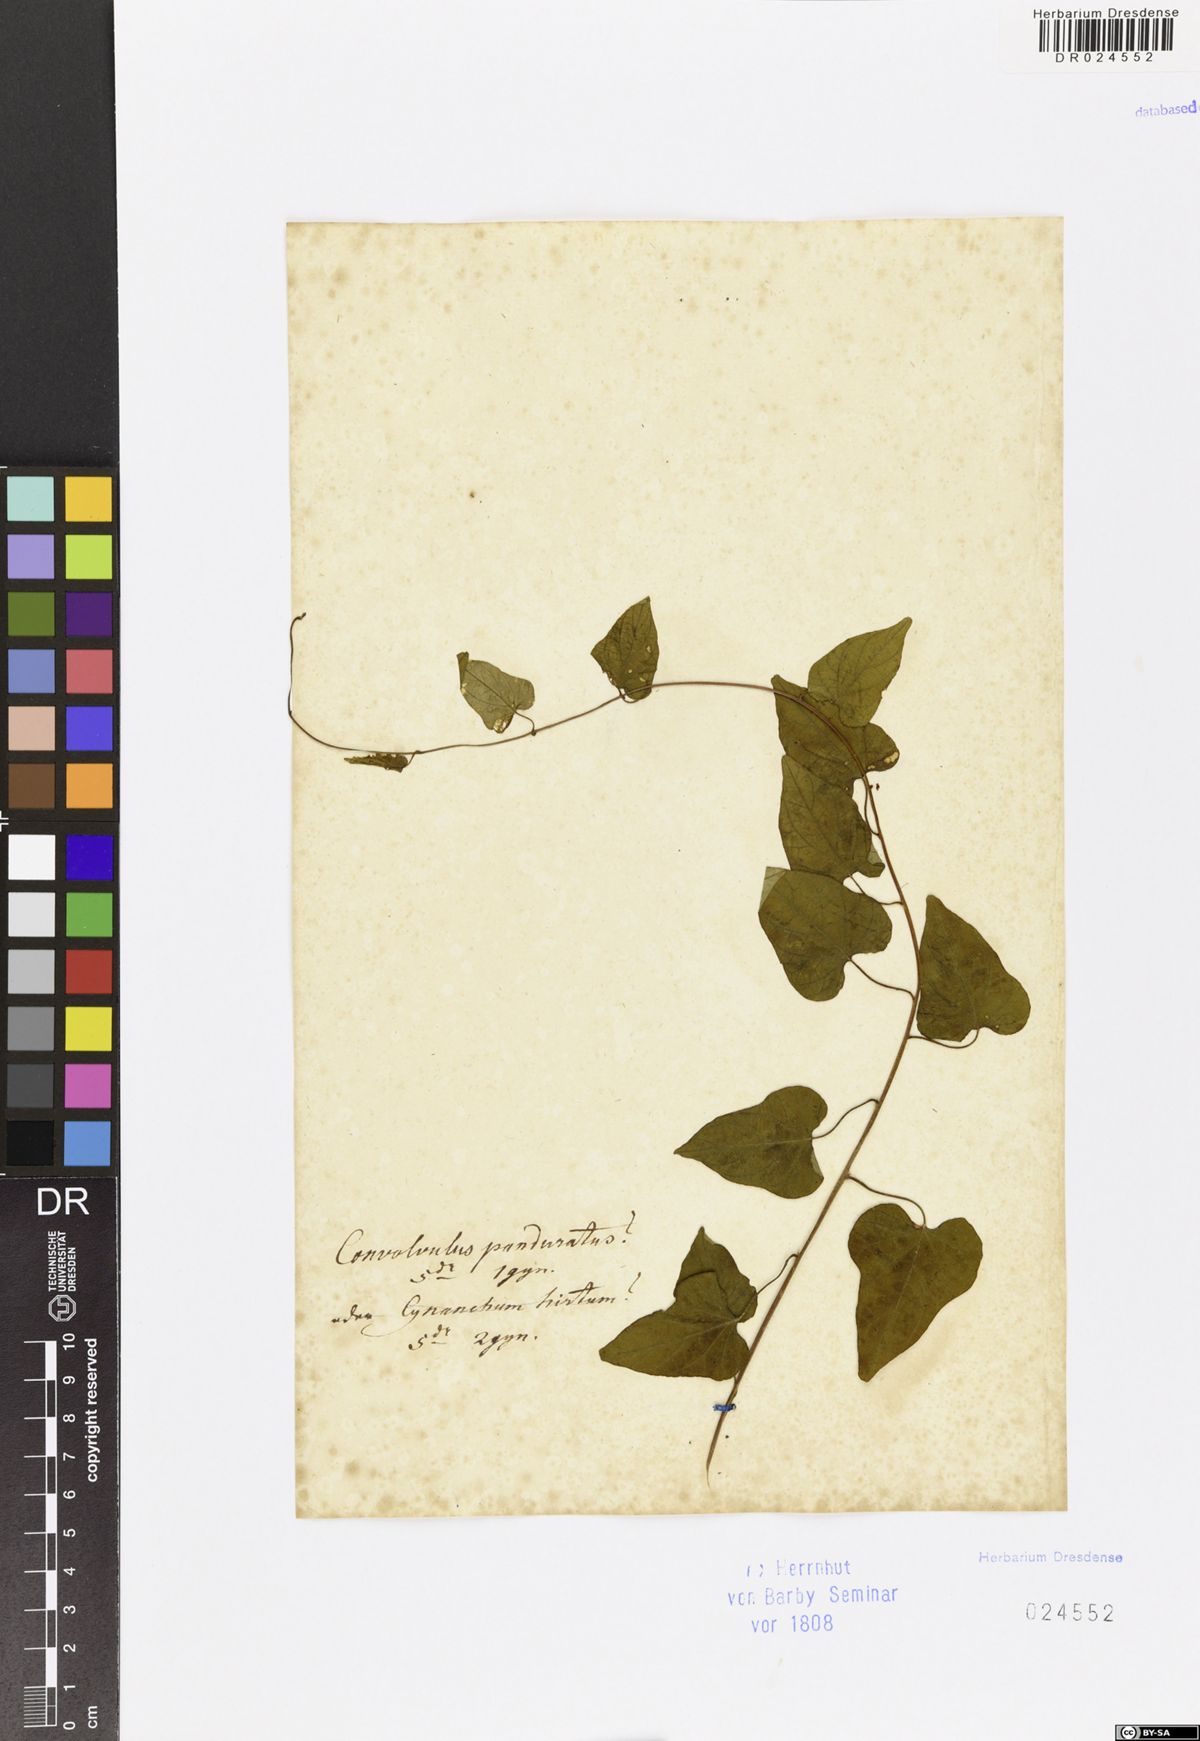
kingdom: Plantae
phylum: Tracheophyta
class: Magnoliopsida
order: Solanales
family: Convolvulaceae
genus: Convolvulus
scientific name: Convolvulus
